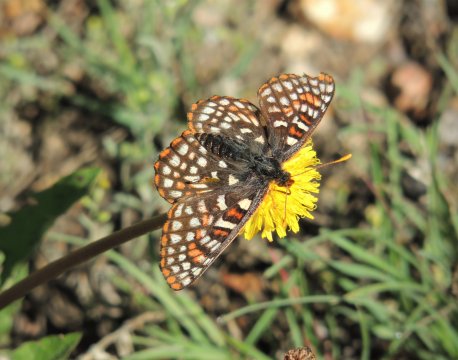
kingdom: Animalia
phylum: Arthropoda
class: Insecta
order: Lepidoptera
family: Nymphalidae
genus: Occidryas
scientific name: Occidryas anicia
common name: Anicia Checkerspot
